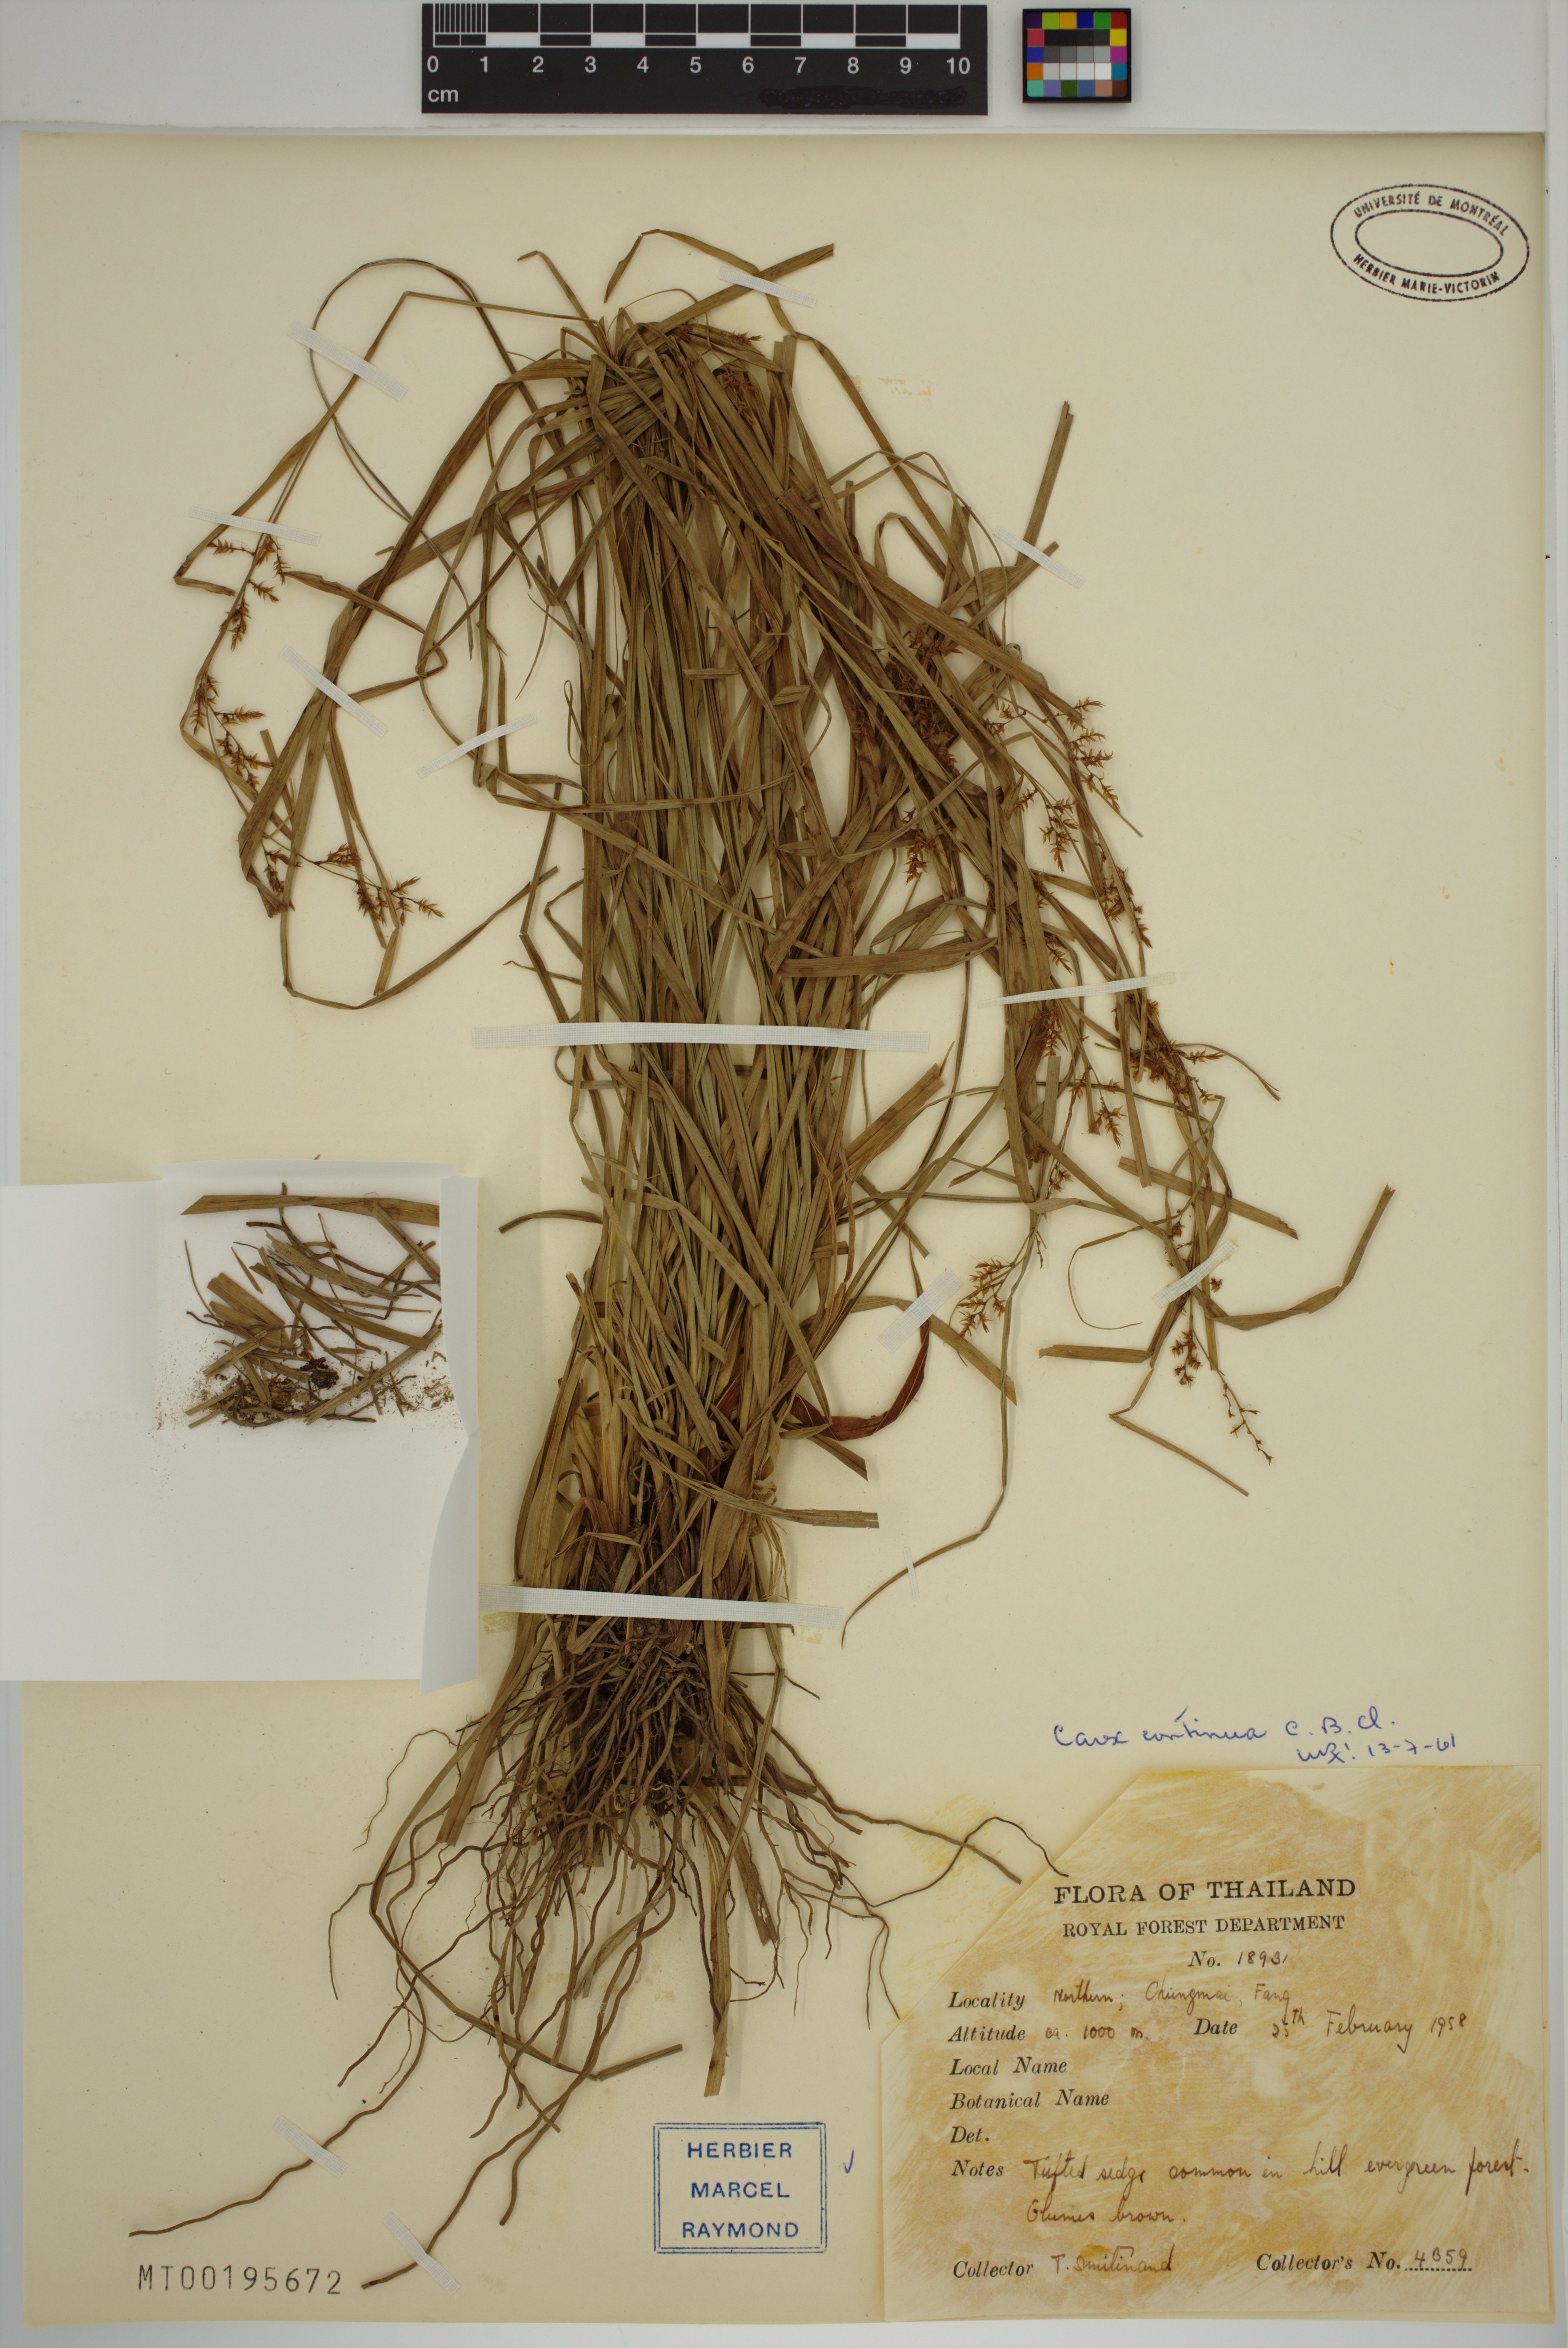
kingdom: Plantae
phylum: Tracheophyta
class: Liliopsida
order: Poales
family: Cyperaceae
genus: Carex
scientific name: Carex continua
